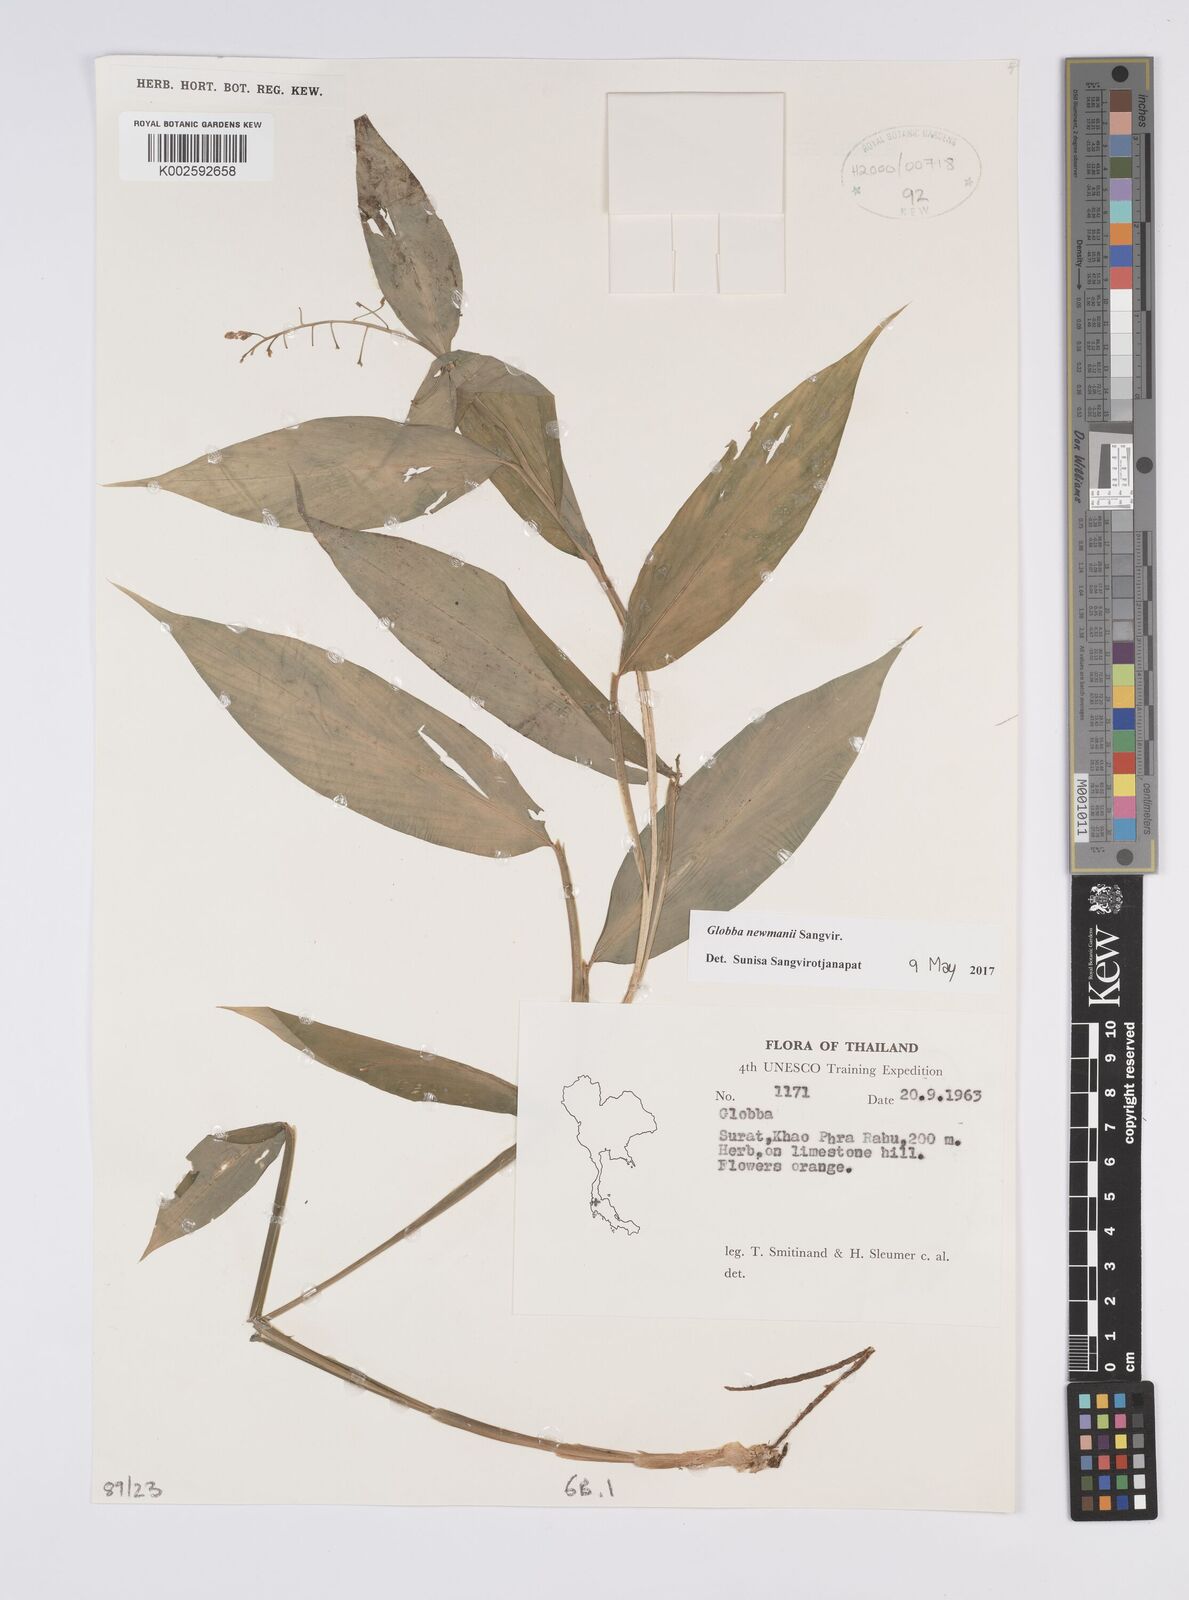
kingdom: Plantae
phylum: Tracheophyta
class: Liliopsida
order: Zingiberales
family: Zingiberaceae
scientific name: Zingiberaceae
